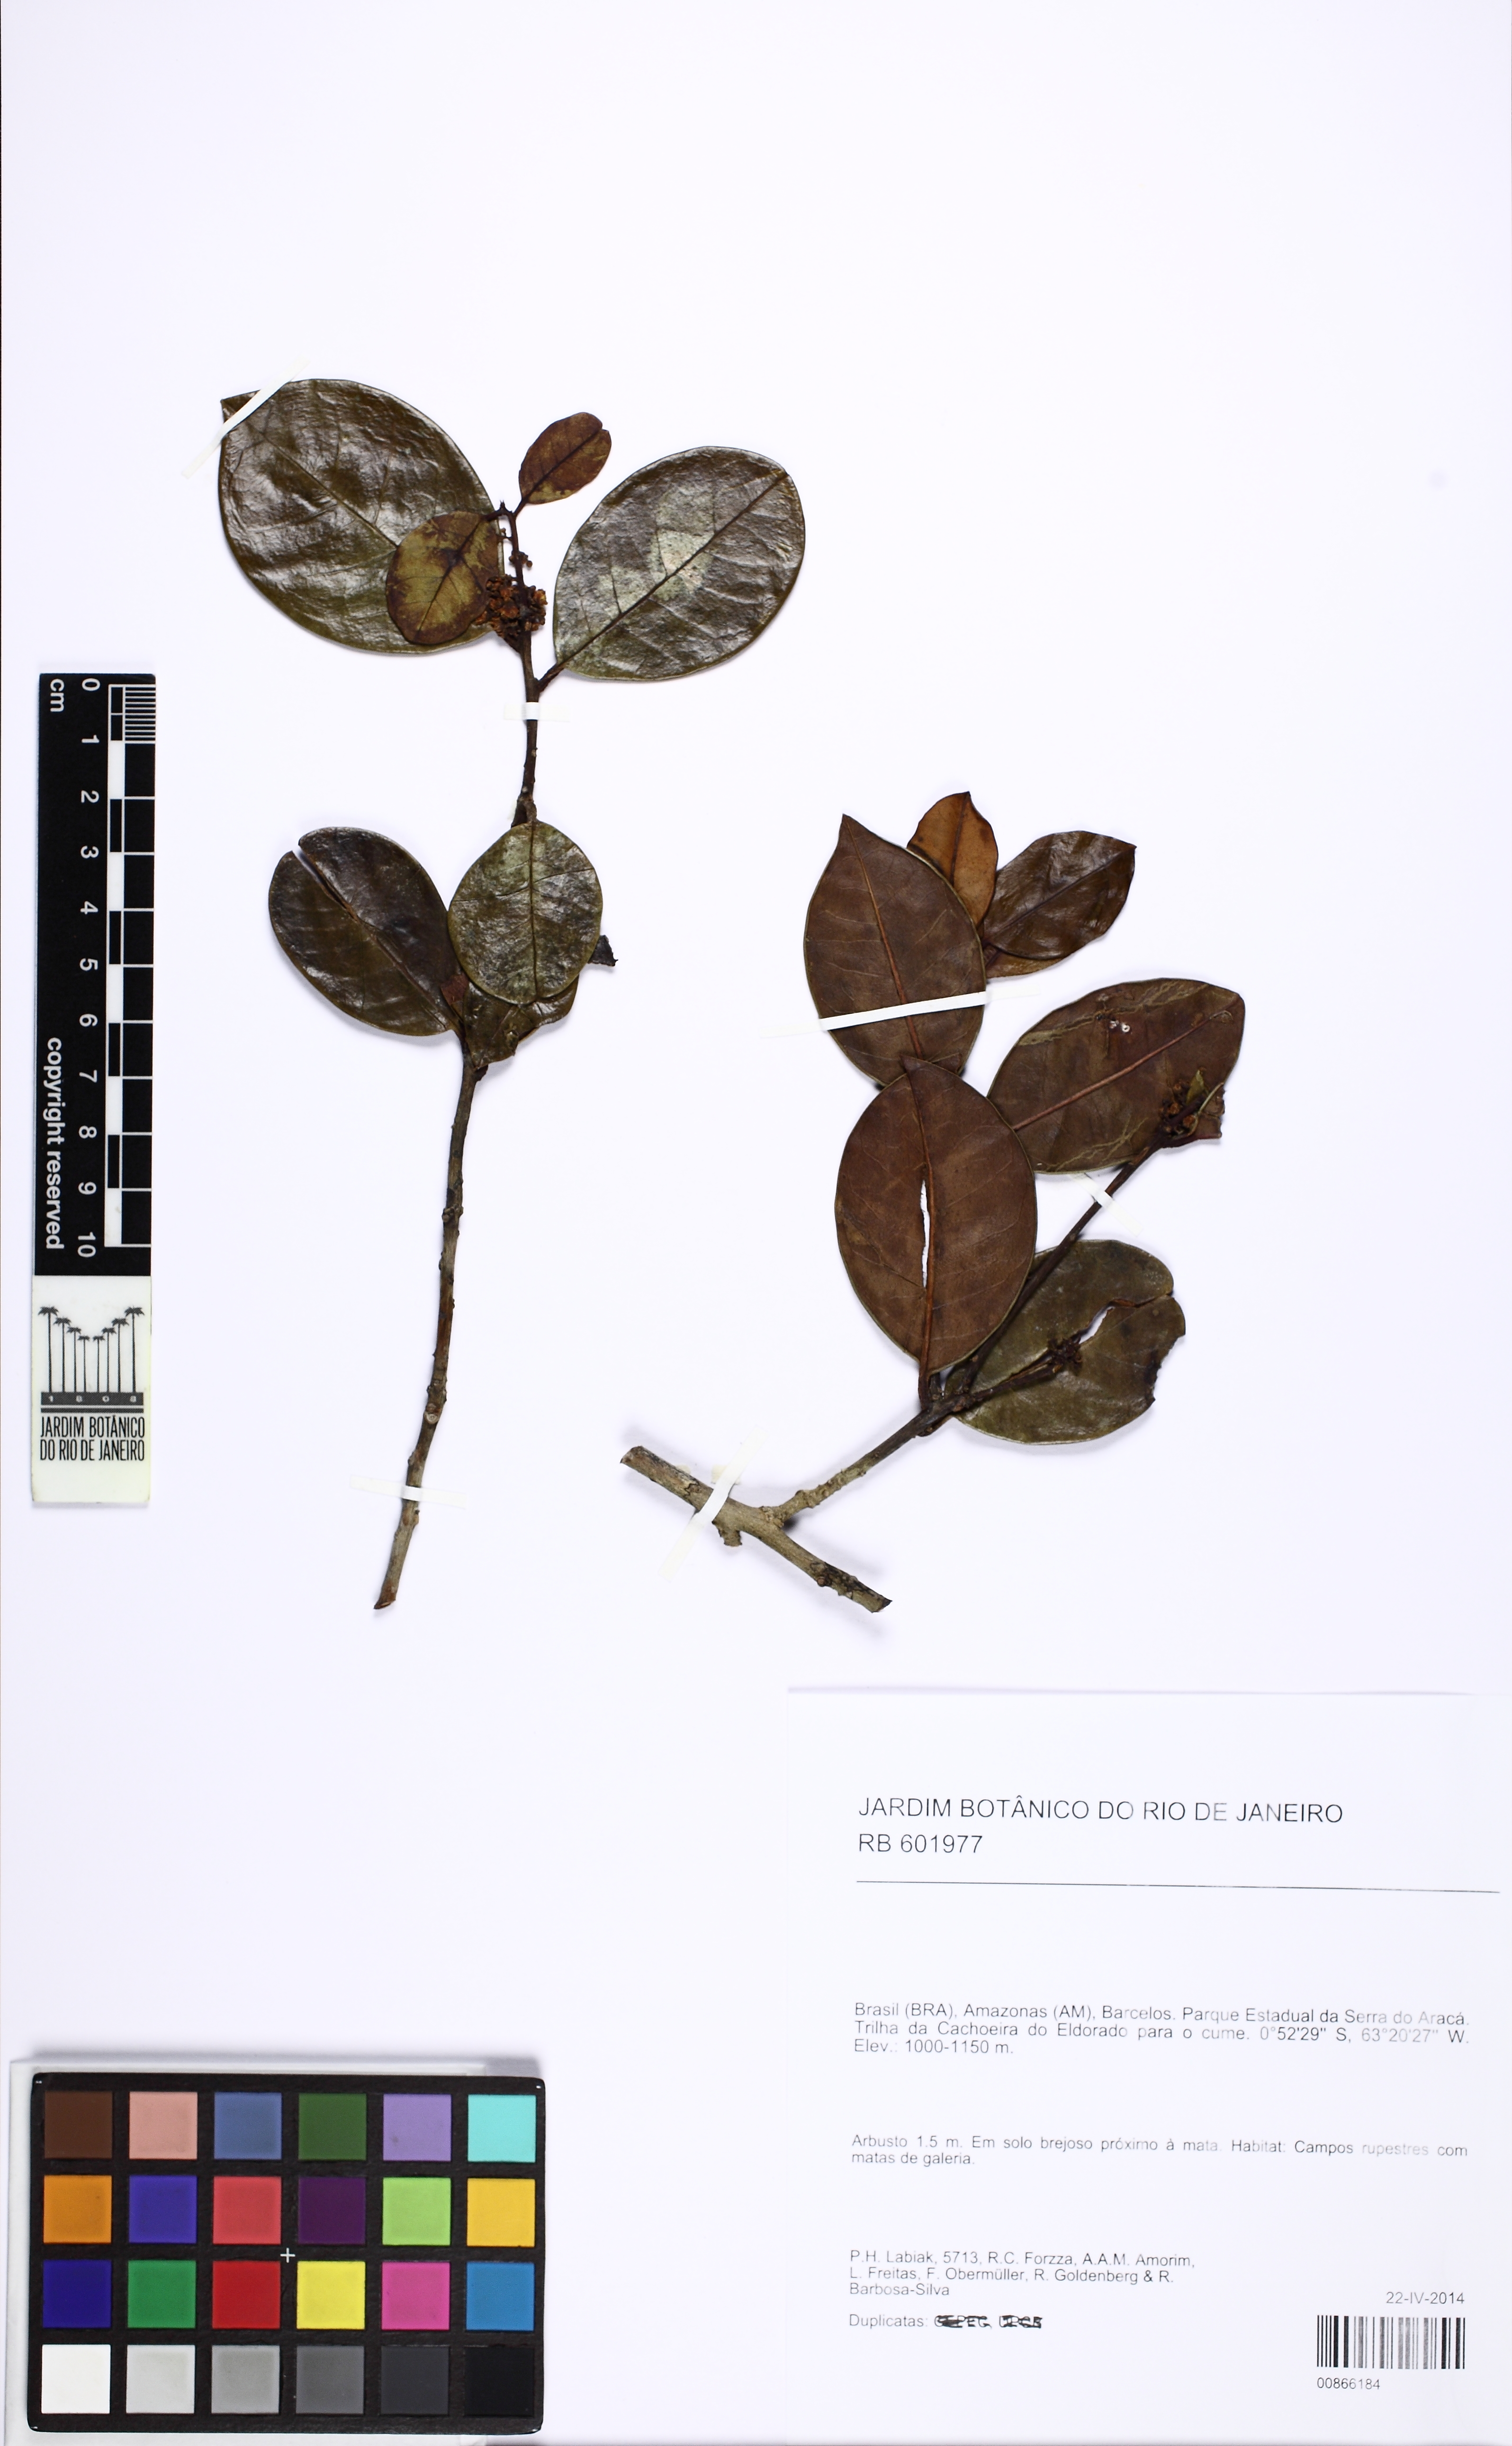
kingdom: Plantae
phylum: Tracheophyta
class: Magnoliopsida
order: Aquifoliales
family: Aquifoliaceae
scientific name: Aquifoliaceae
